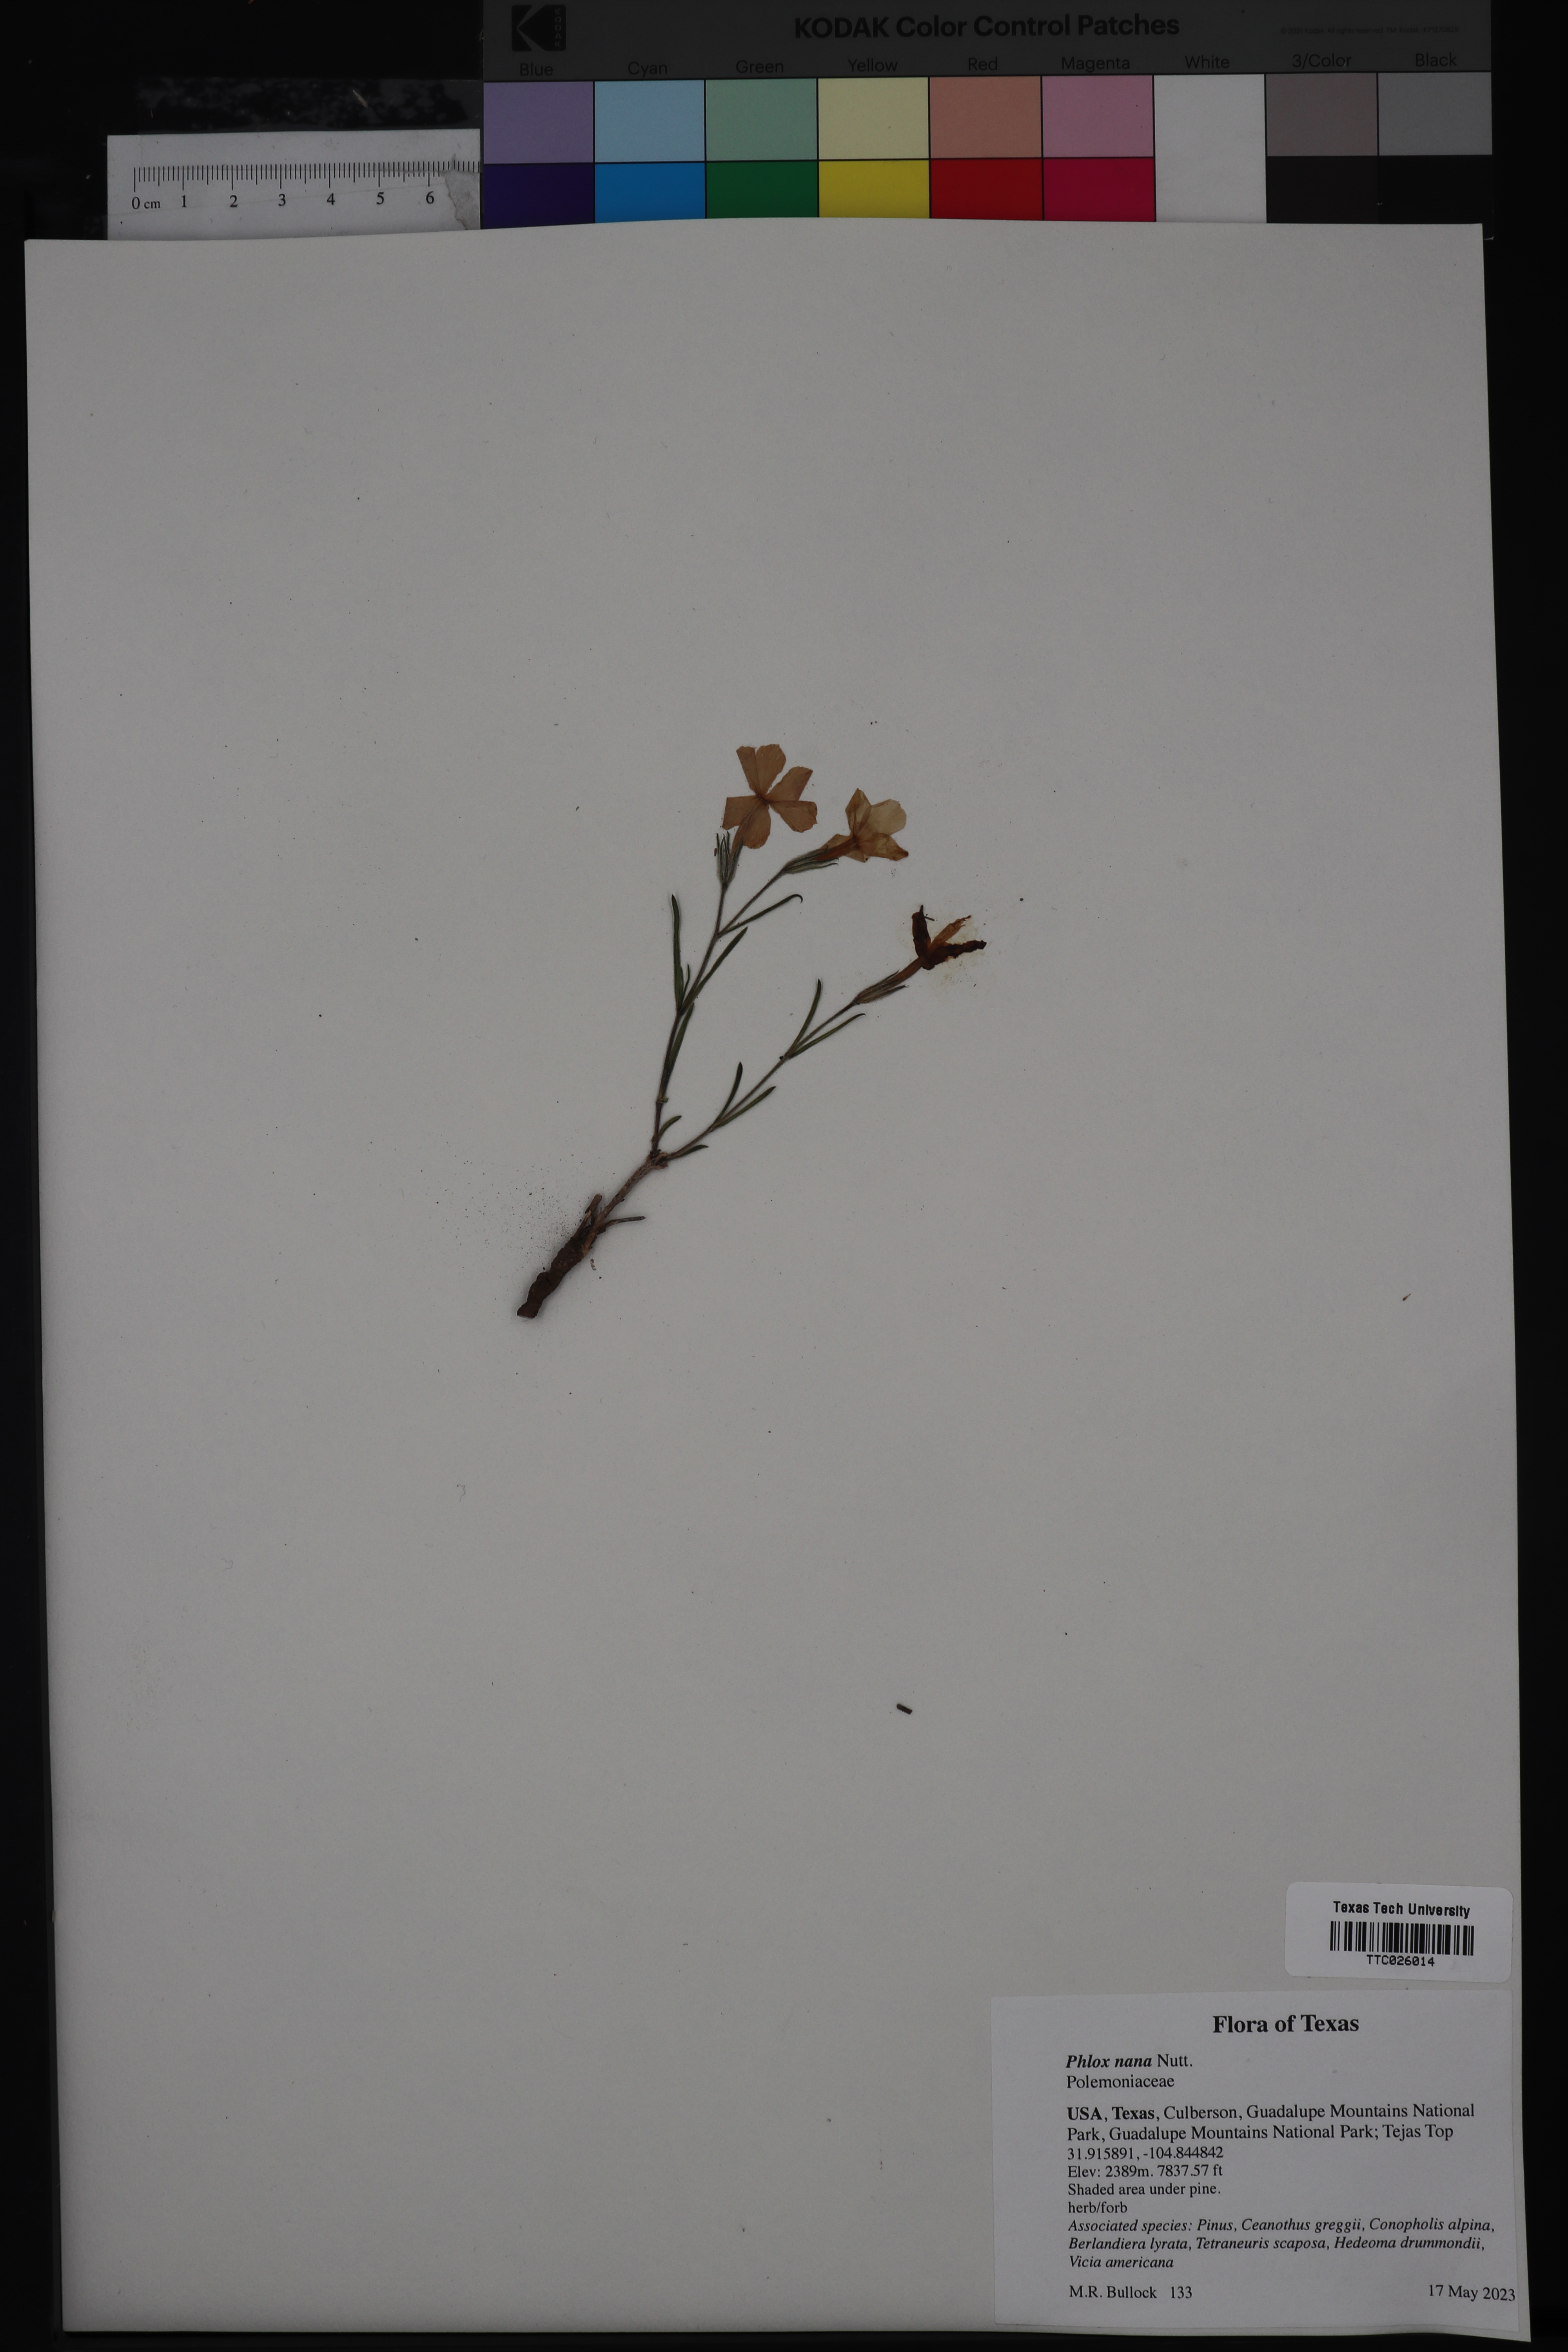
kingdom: Plantae
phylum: Tracheophyta
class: Magnoliopsida
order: Ericales
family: Polemoniaceae
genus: Phlox
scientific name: Phlox nana
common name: Santa fe phlox
